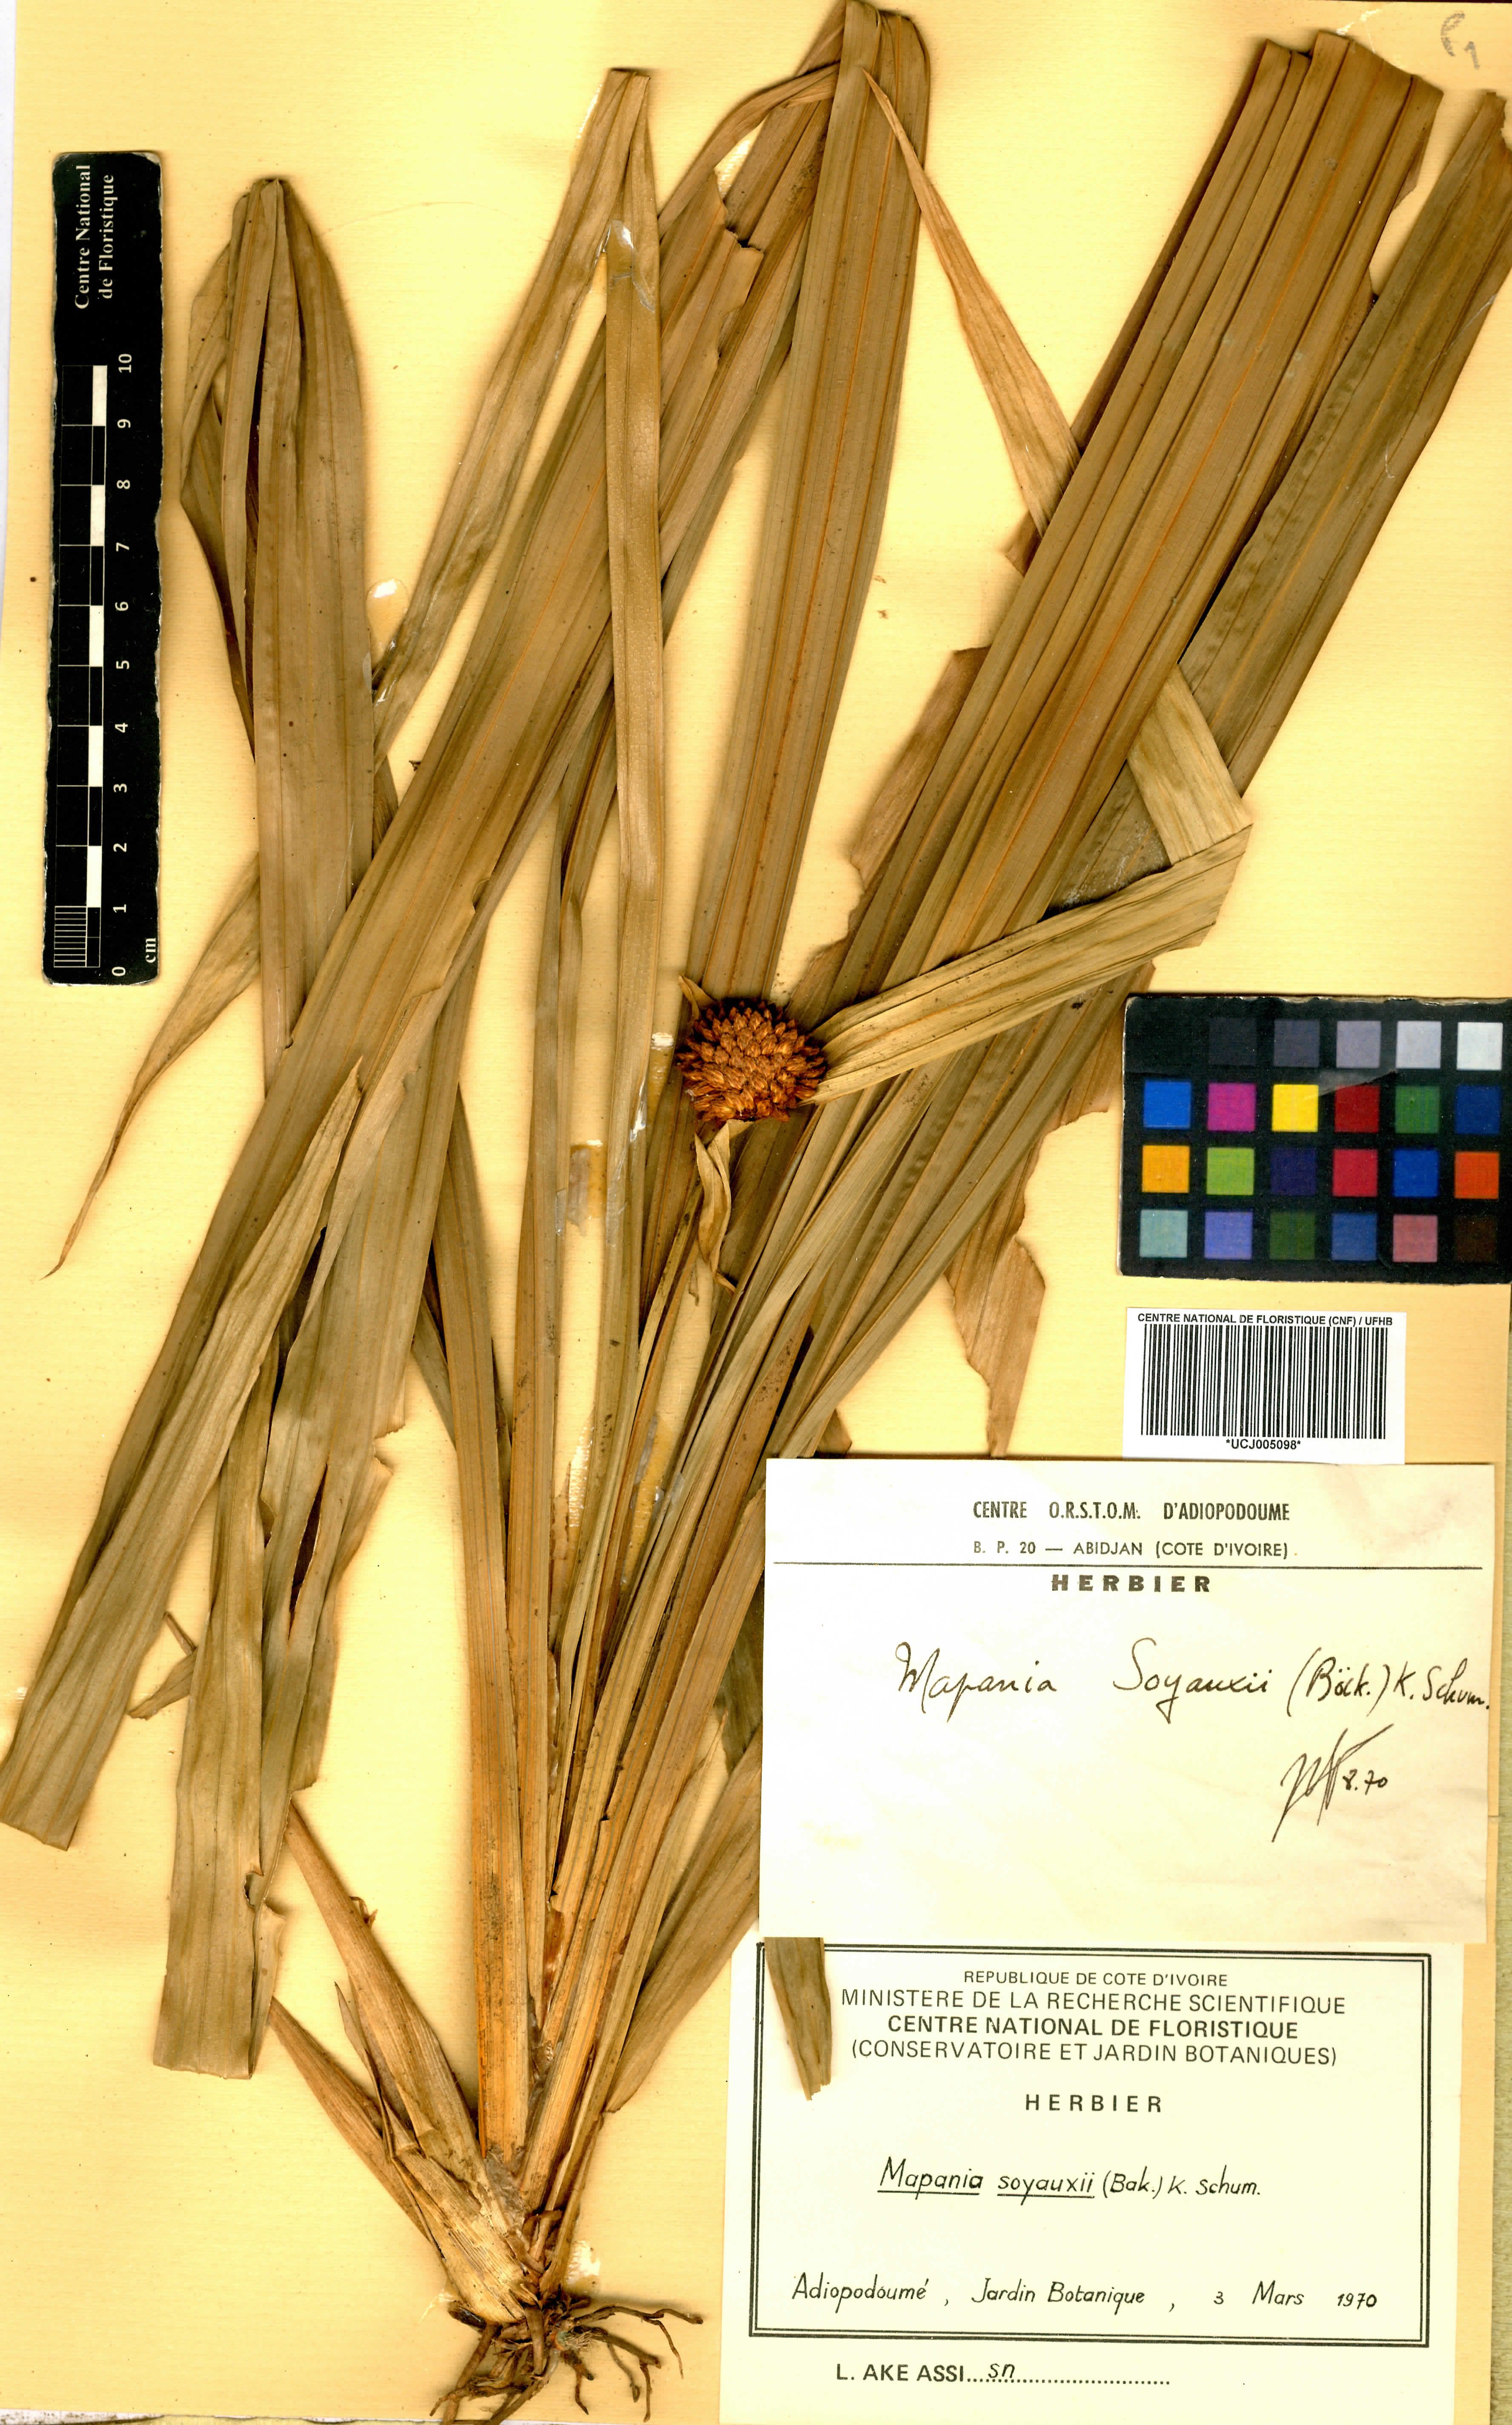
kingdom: Plantae
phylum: Tracheophyta
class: Liliopsida
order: Poales
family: Cyperaceae
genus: Mapania
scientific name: Mapania soyauxii
